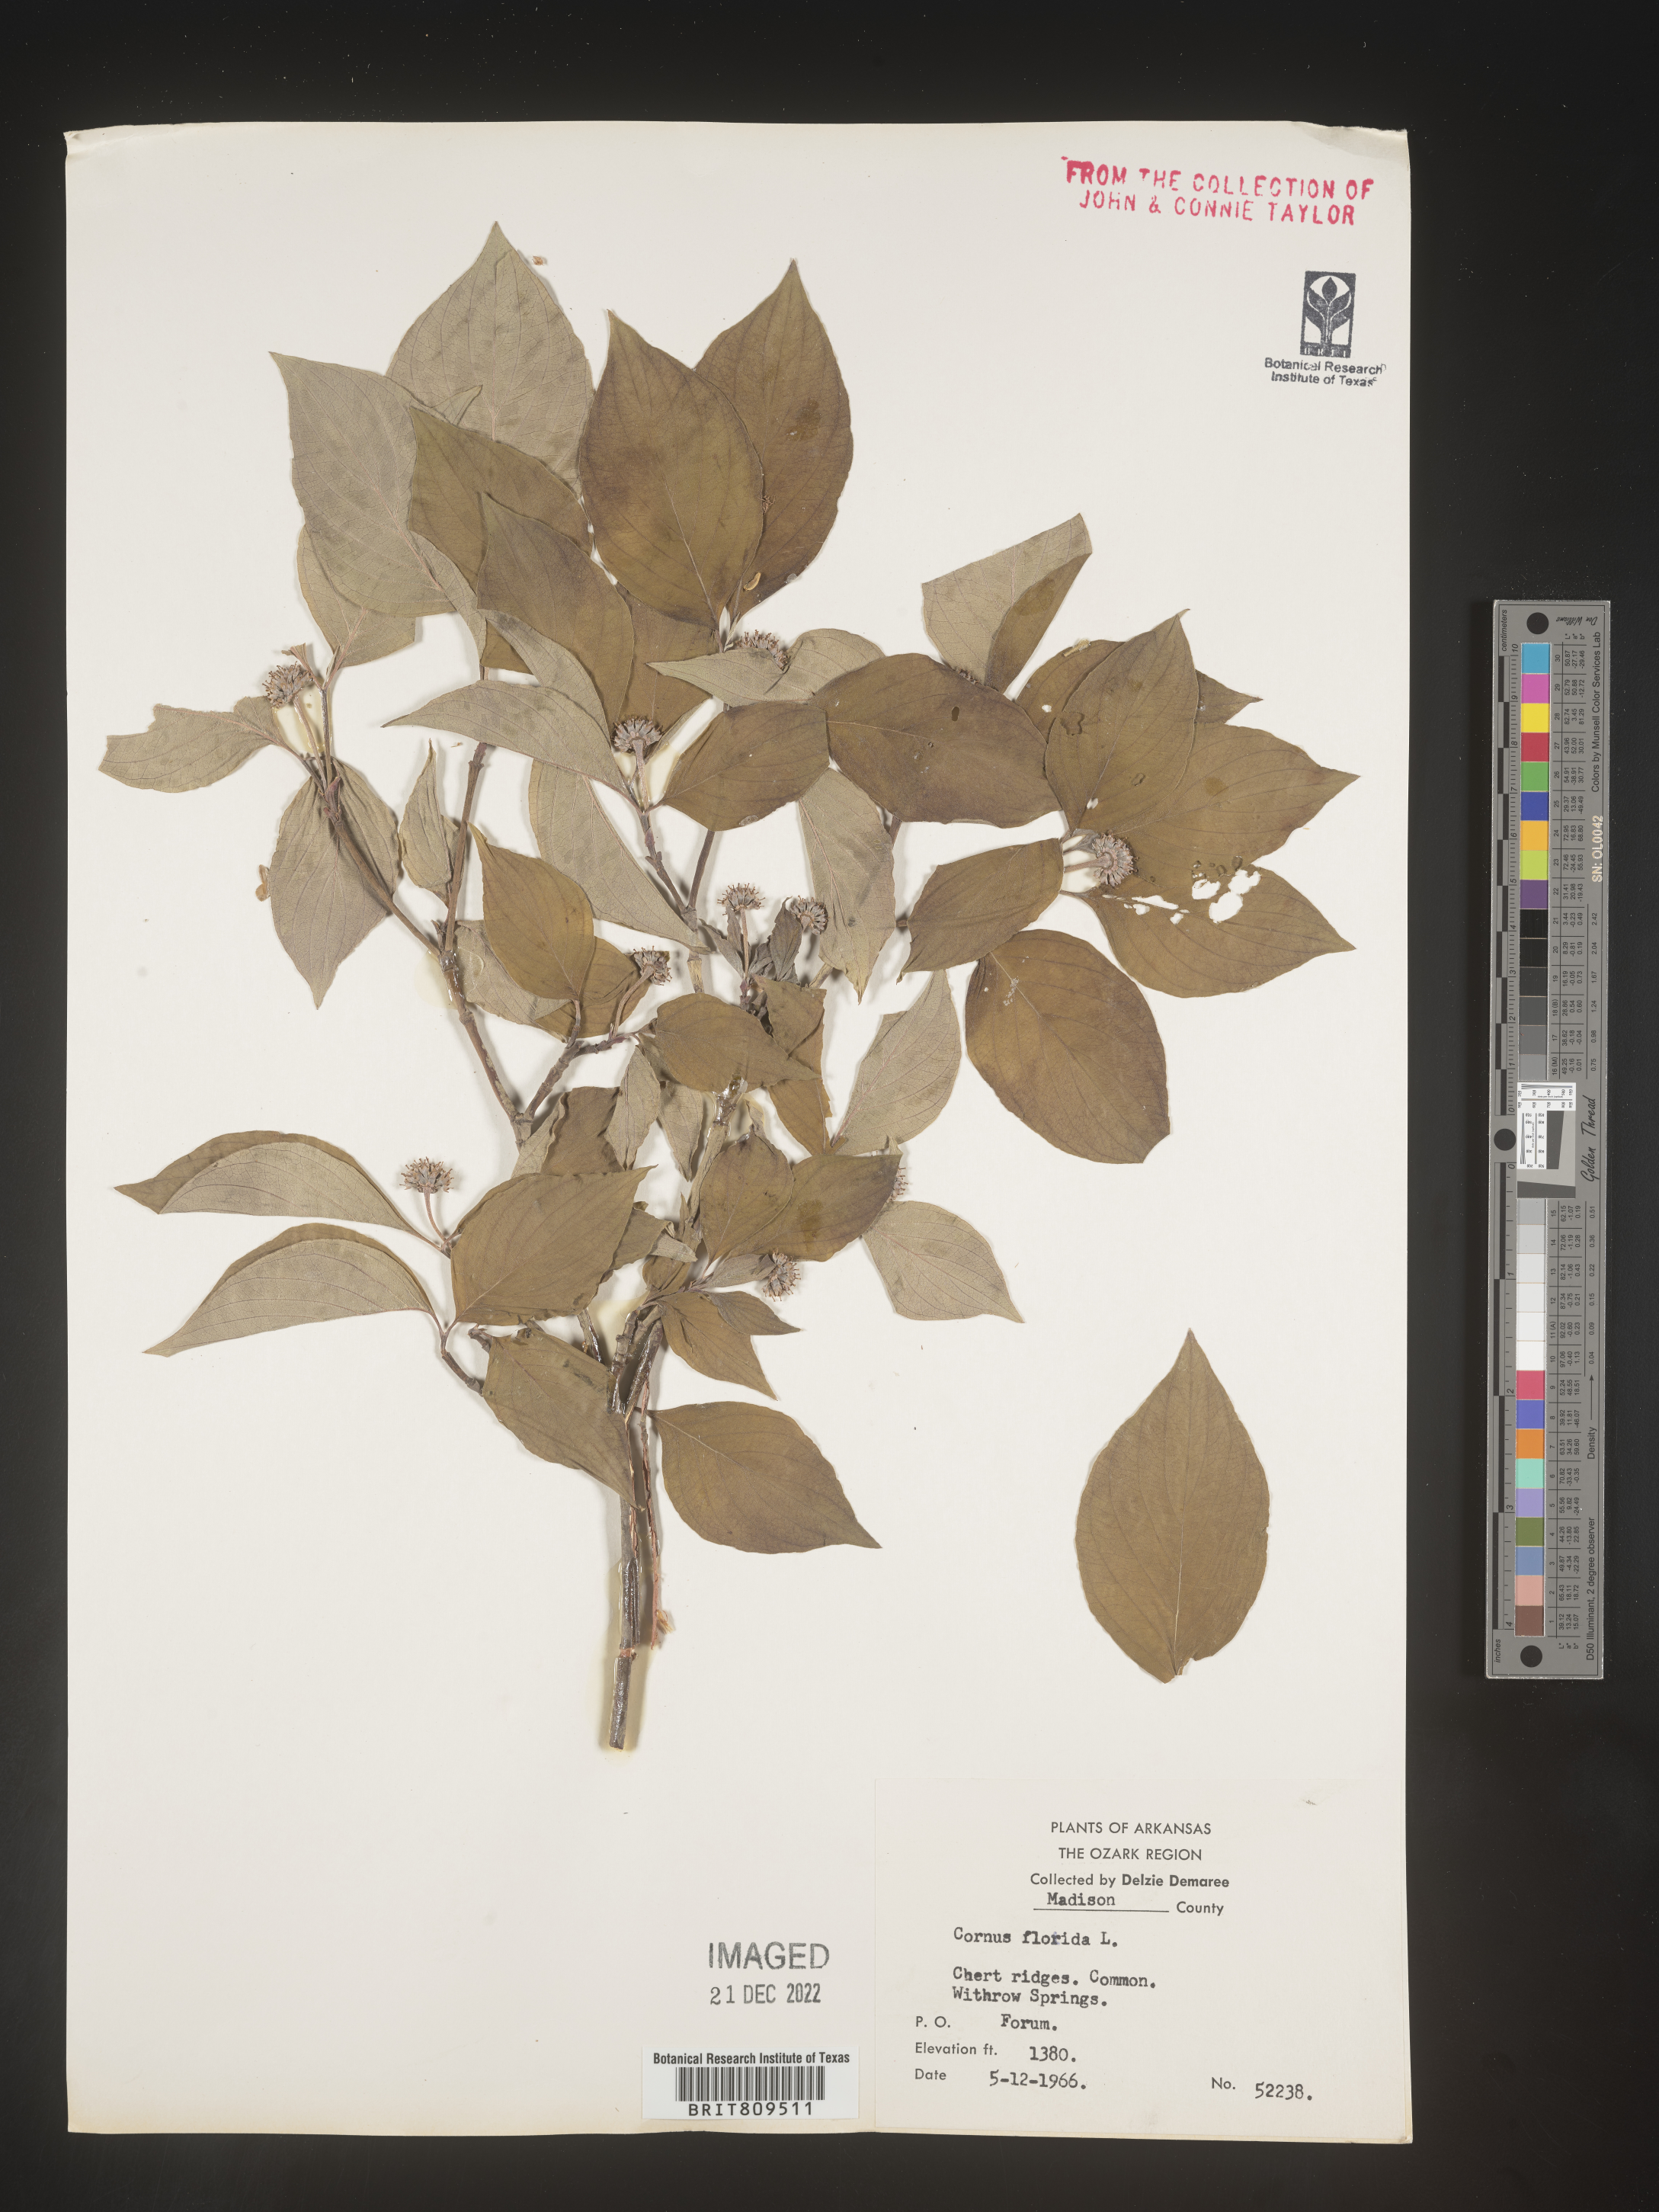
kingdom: Plantae
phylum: Tracheophyta
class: Magnoliopsida
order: Cornales
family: Cornaceae
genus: Cornus
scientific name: Cornus florida
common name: Flowering dogwood
